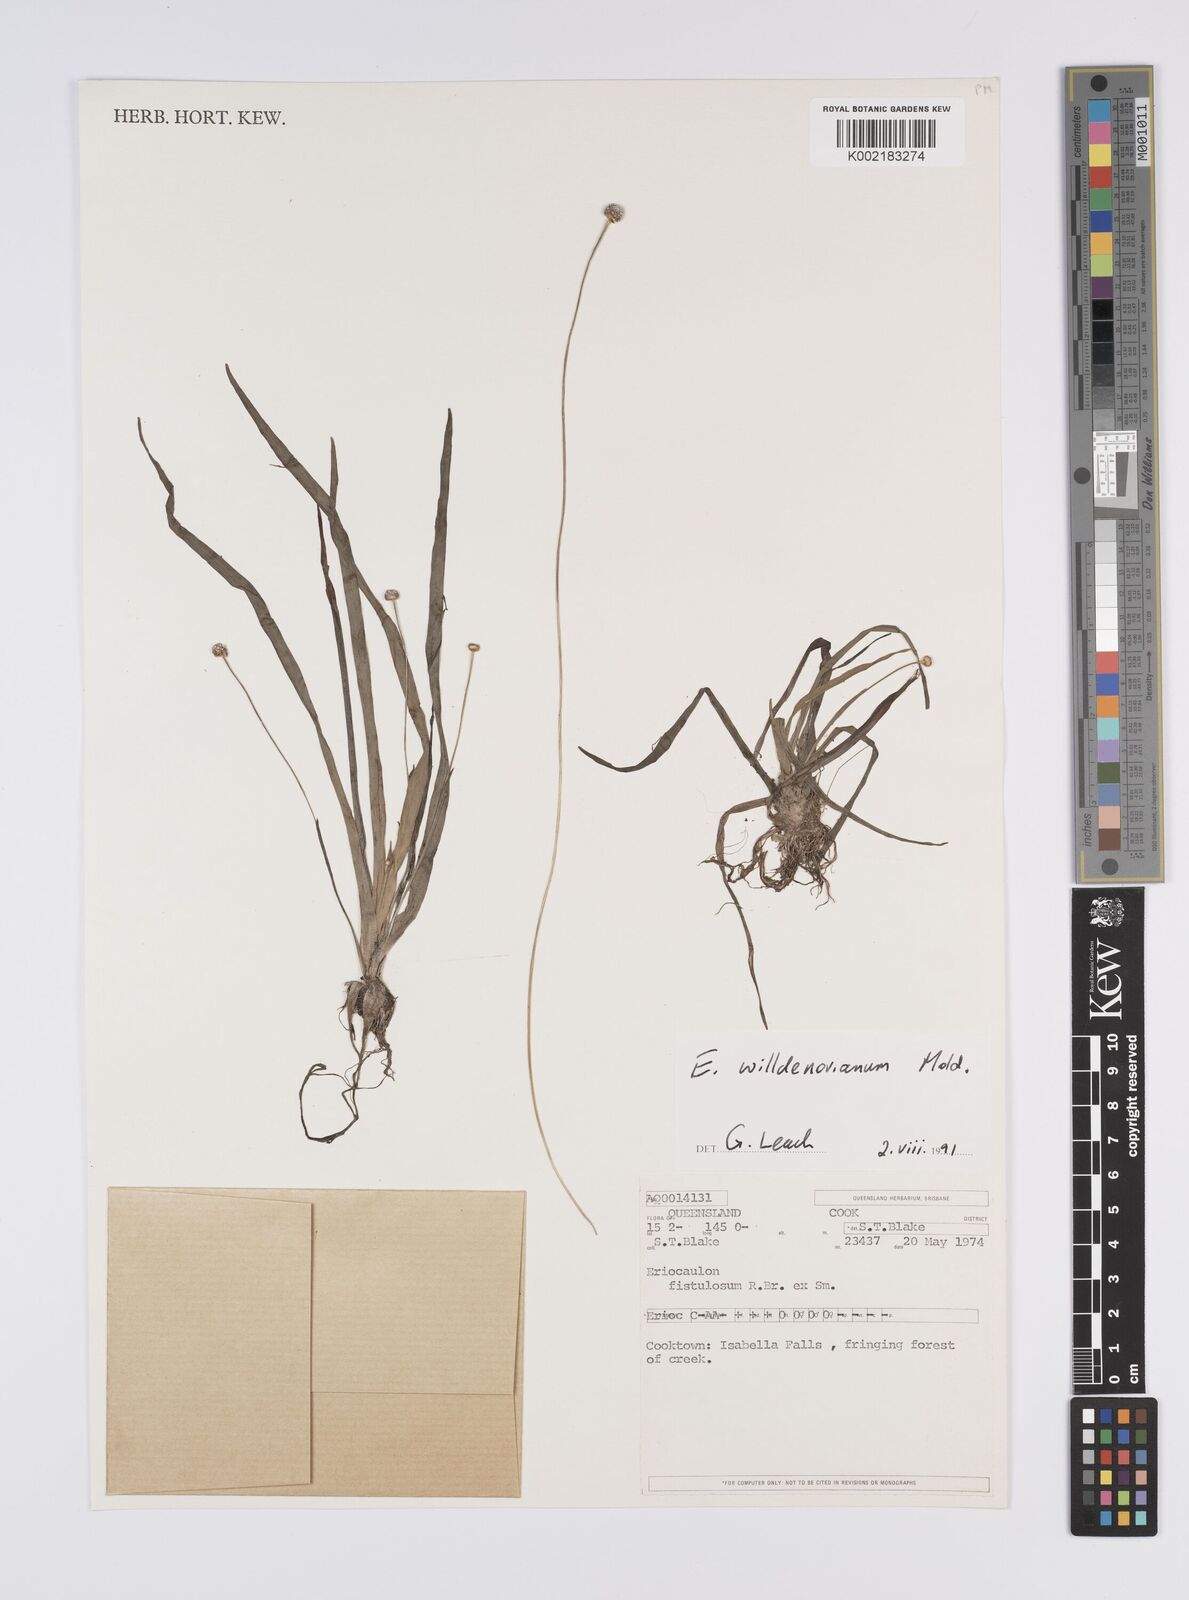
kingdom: Plantae
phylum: Tracheophyta
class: Liliopsida
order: Poales
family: Eriocaulaceae
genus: Eriocaulon
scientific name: Eriocaulon willdenovianum
